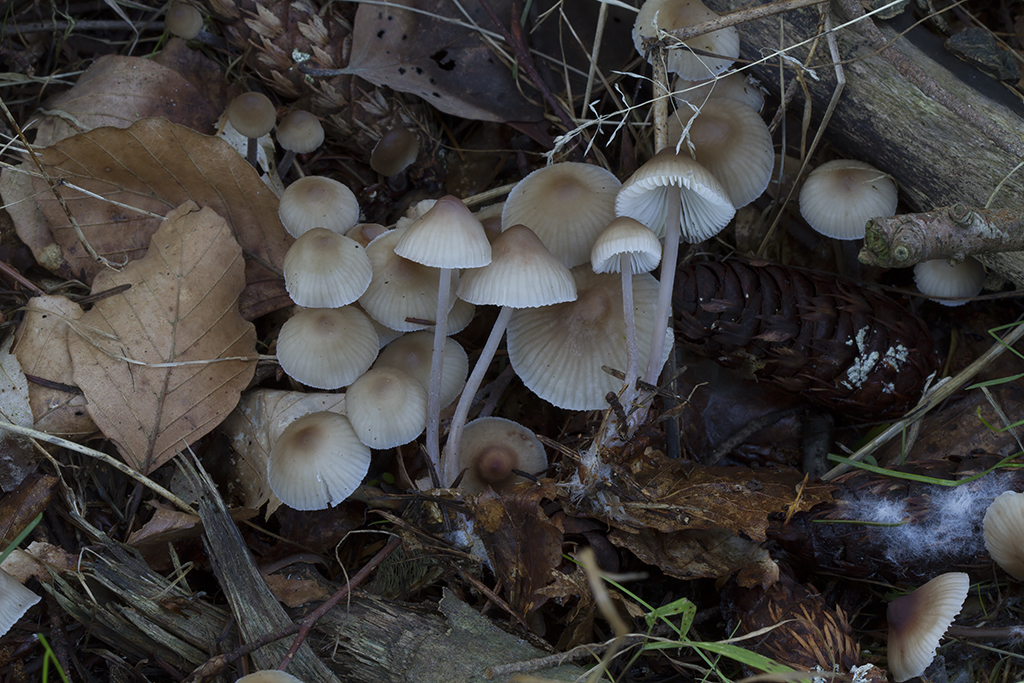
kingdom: Fungi
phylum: Basidiomycota
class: Agaricomycetes
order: Agaricales
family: Mycenaceae
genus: Mycena
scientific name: Mycena zephirus
